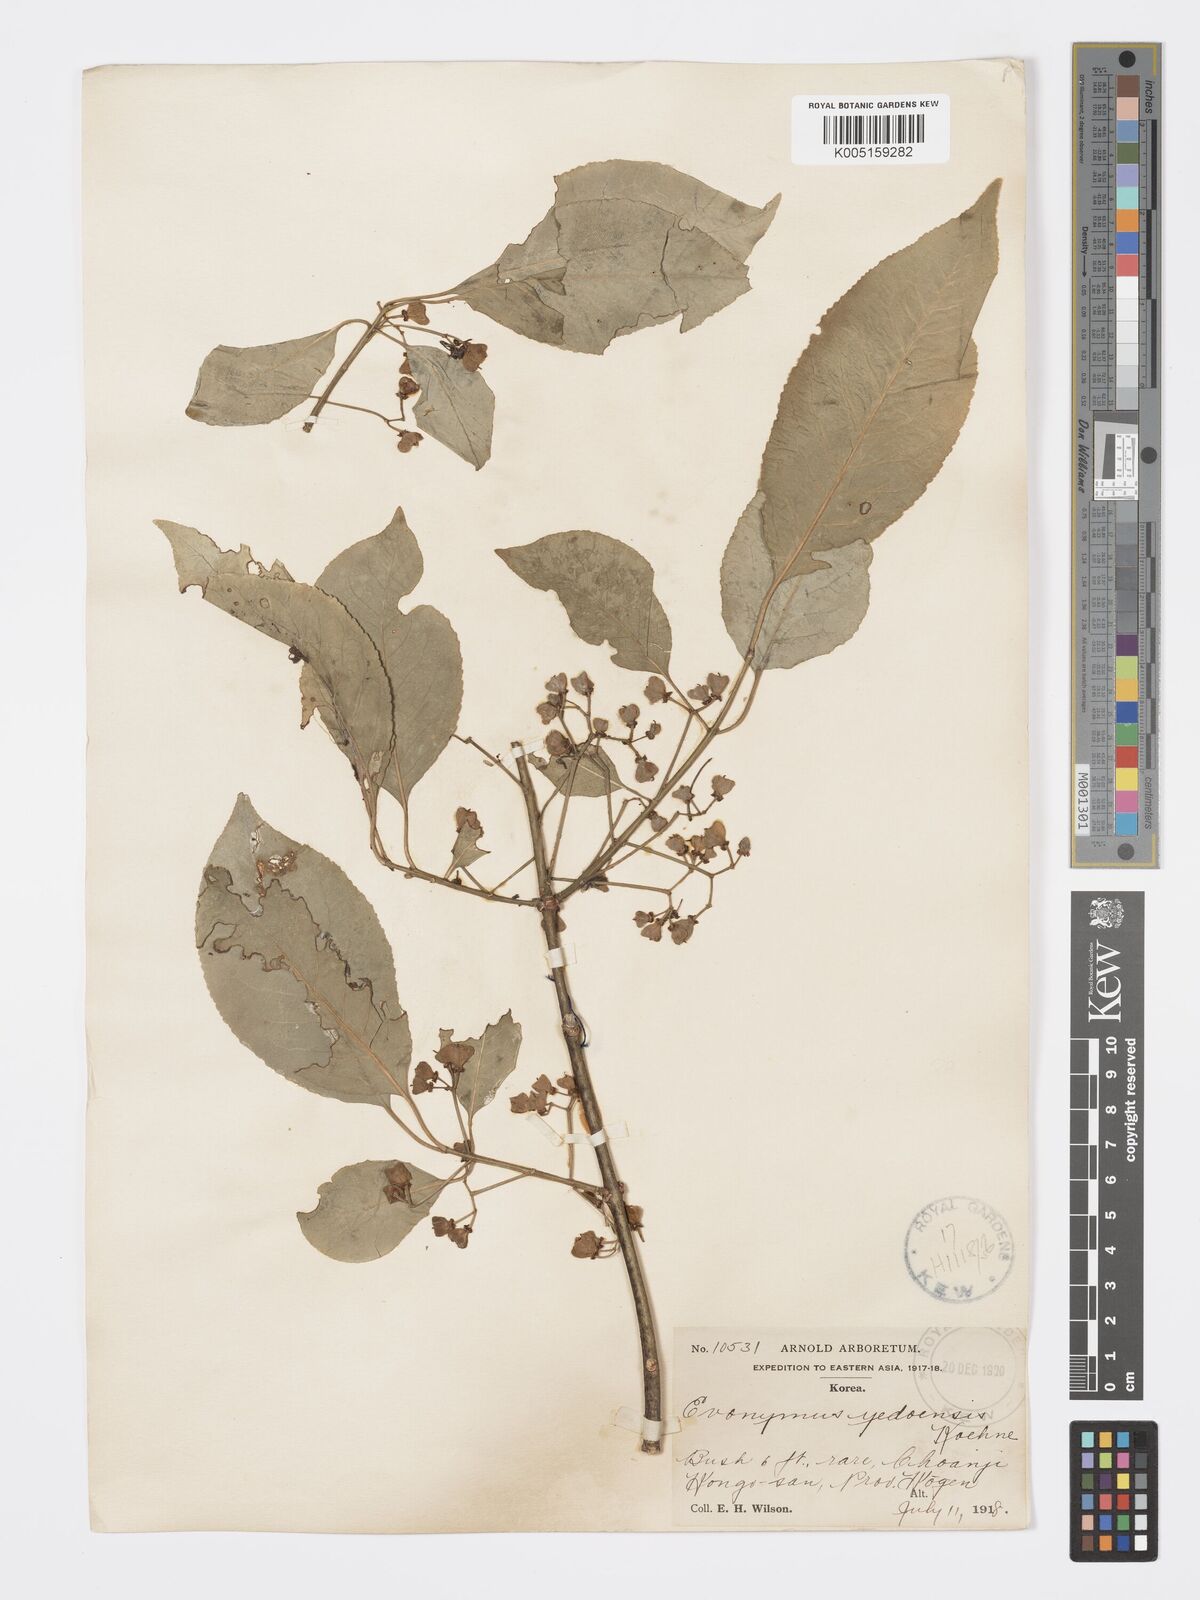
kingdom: Plantae
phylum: Tracheophyta
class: Magnoliopsida
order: Celastrales
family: Celastraceae
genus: Euonymus
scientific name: Euonymus hamiltonianus
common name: Hamilton's spindletree
